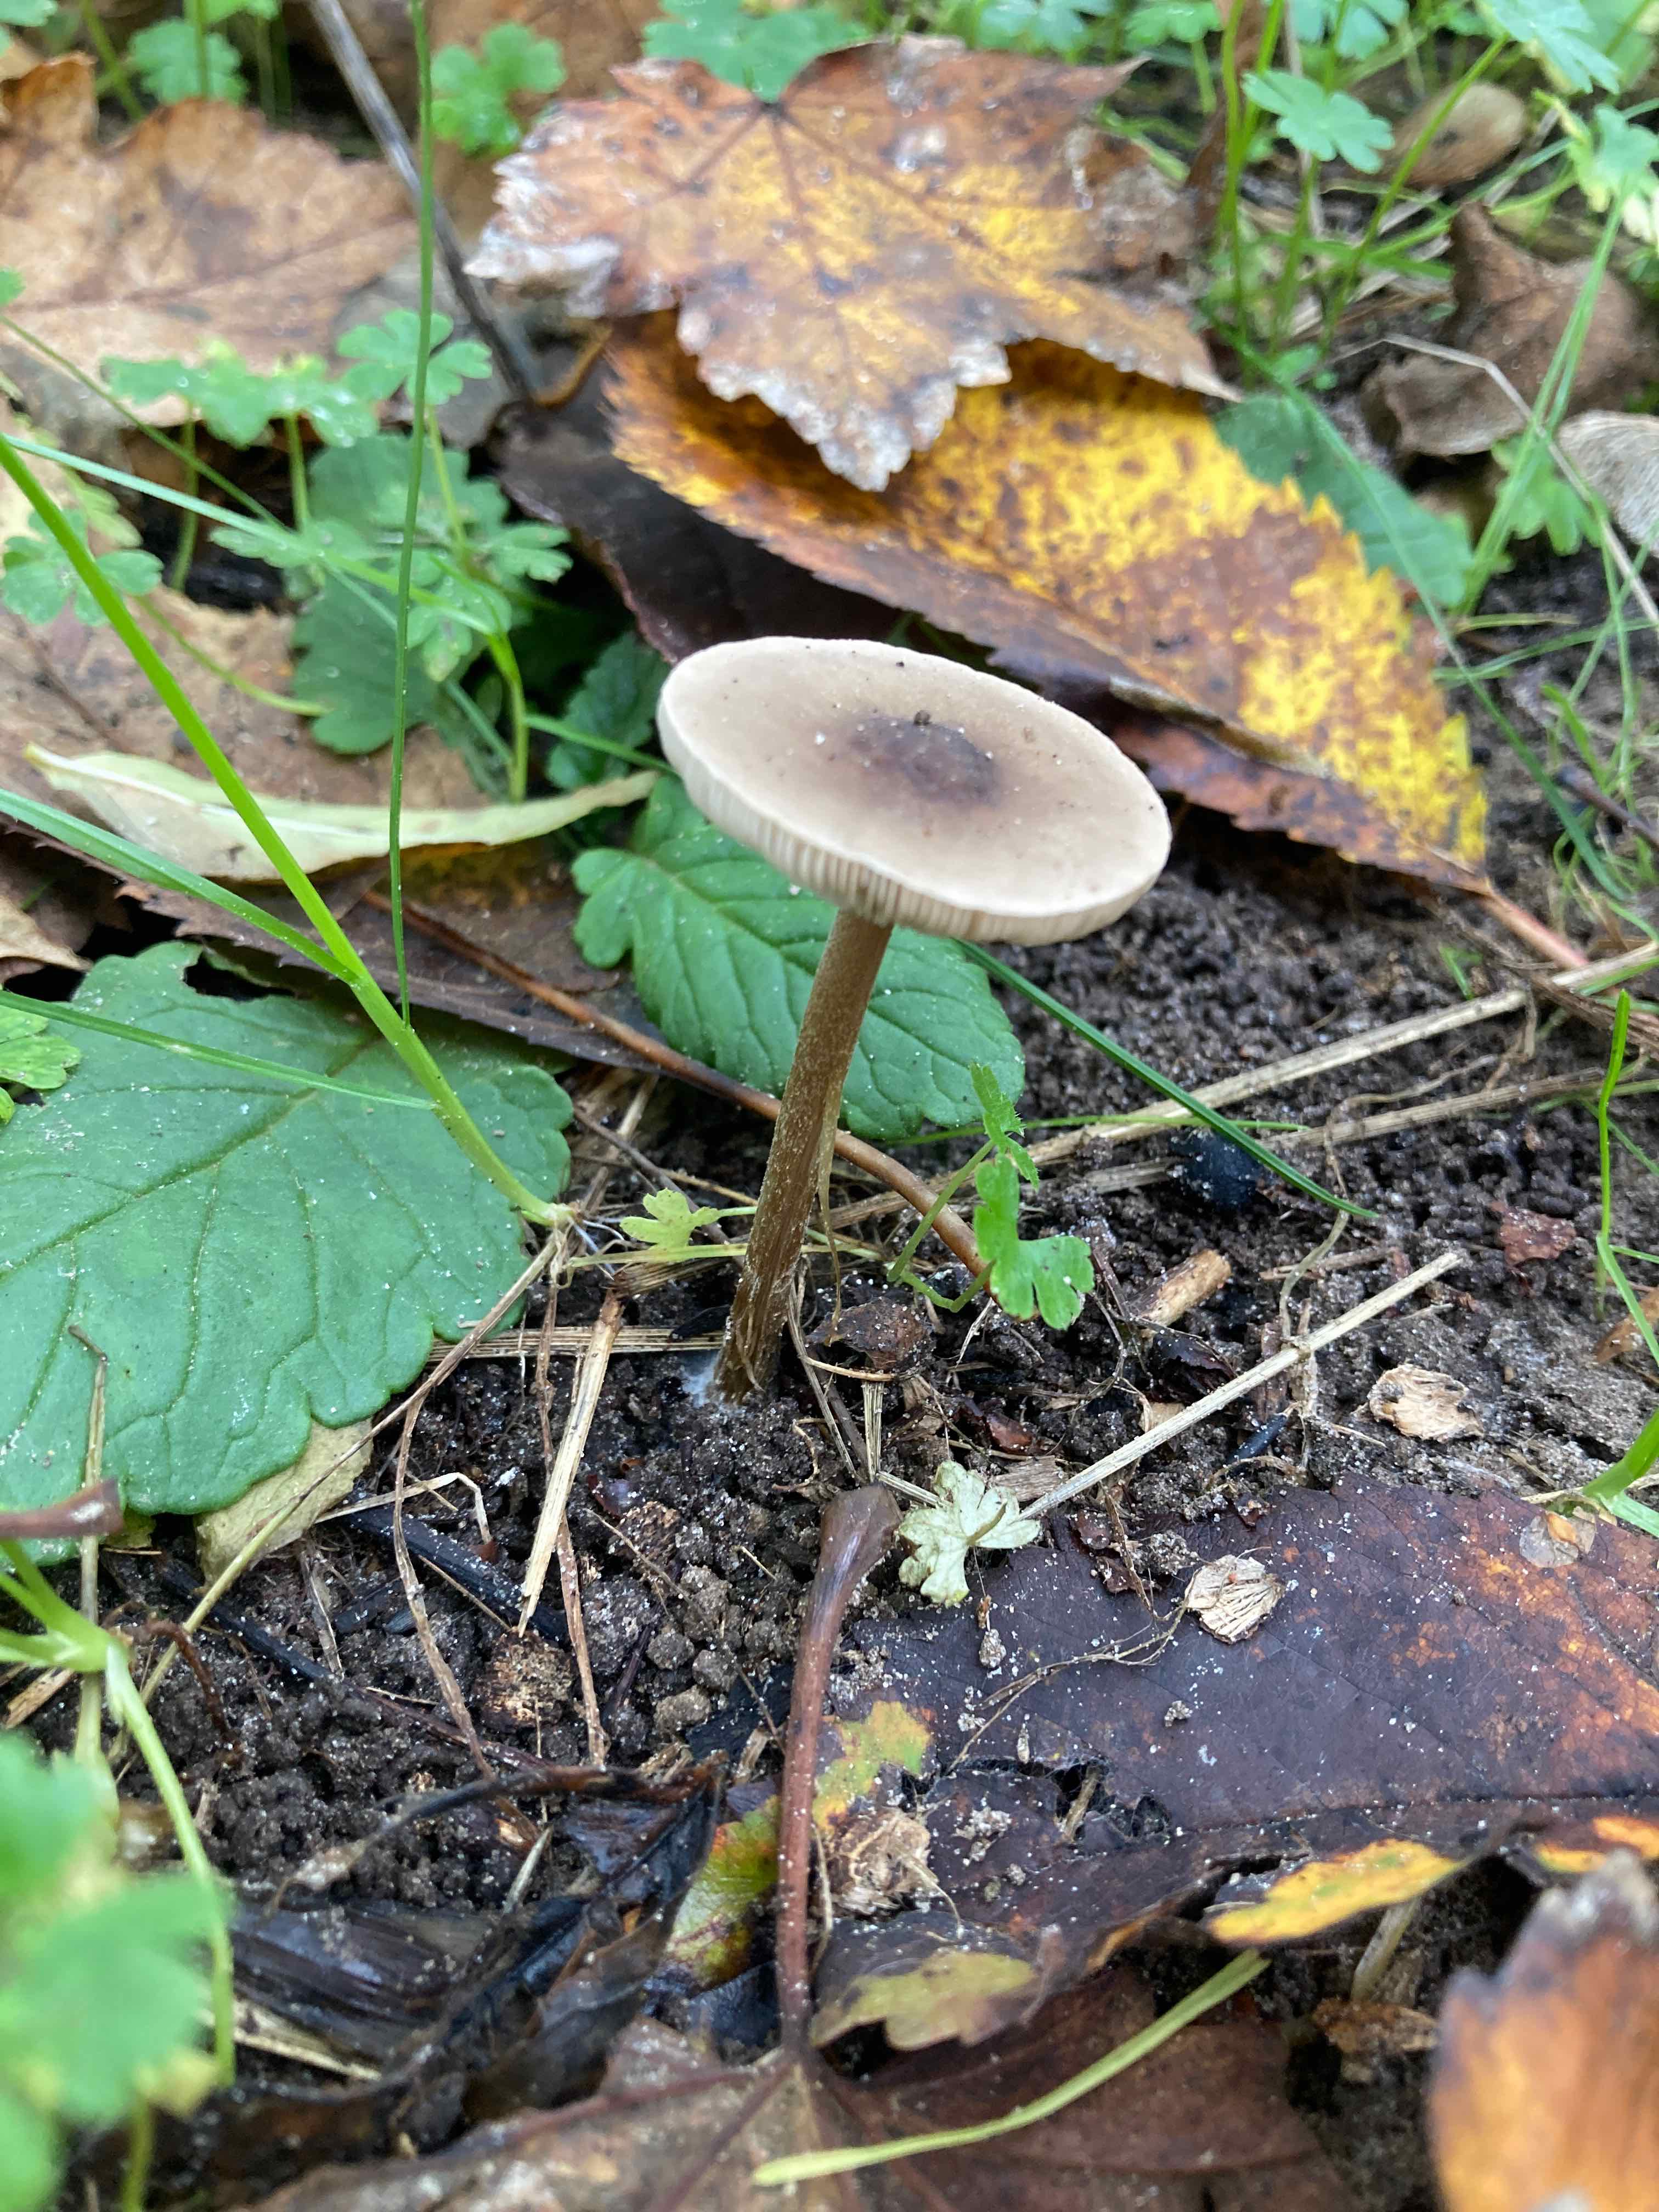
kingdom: Fungi
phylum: Basidiomycota
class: Agaricomycetes
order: Agaricales
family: Tricholomataceae
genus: Melanoleuca
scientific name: Melanoleuca bataillei
